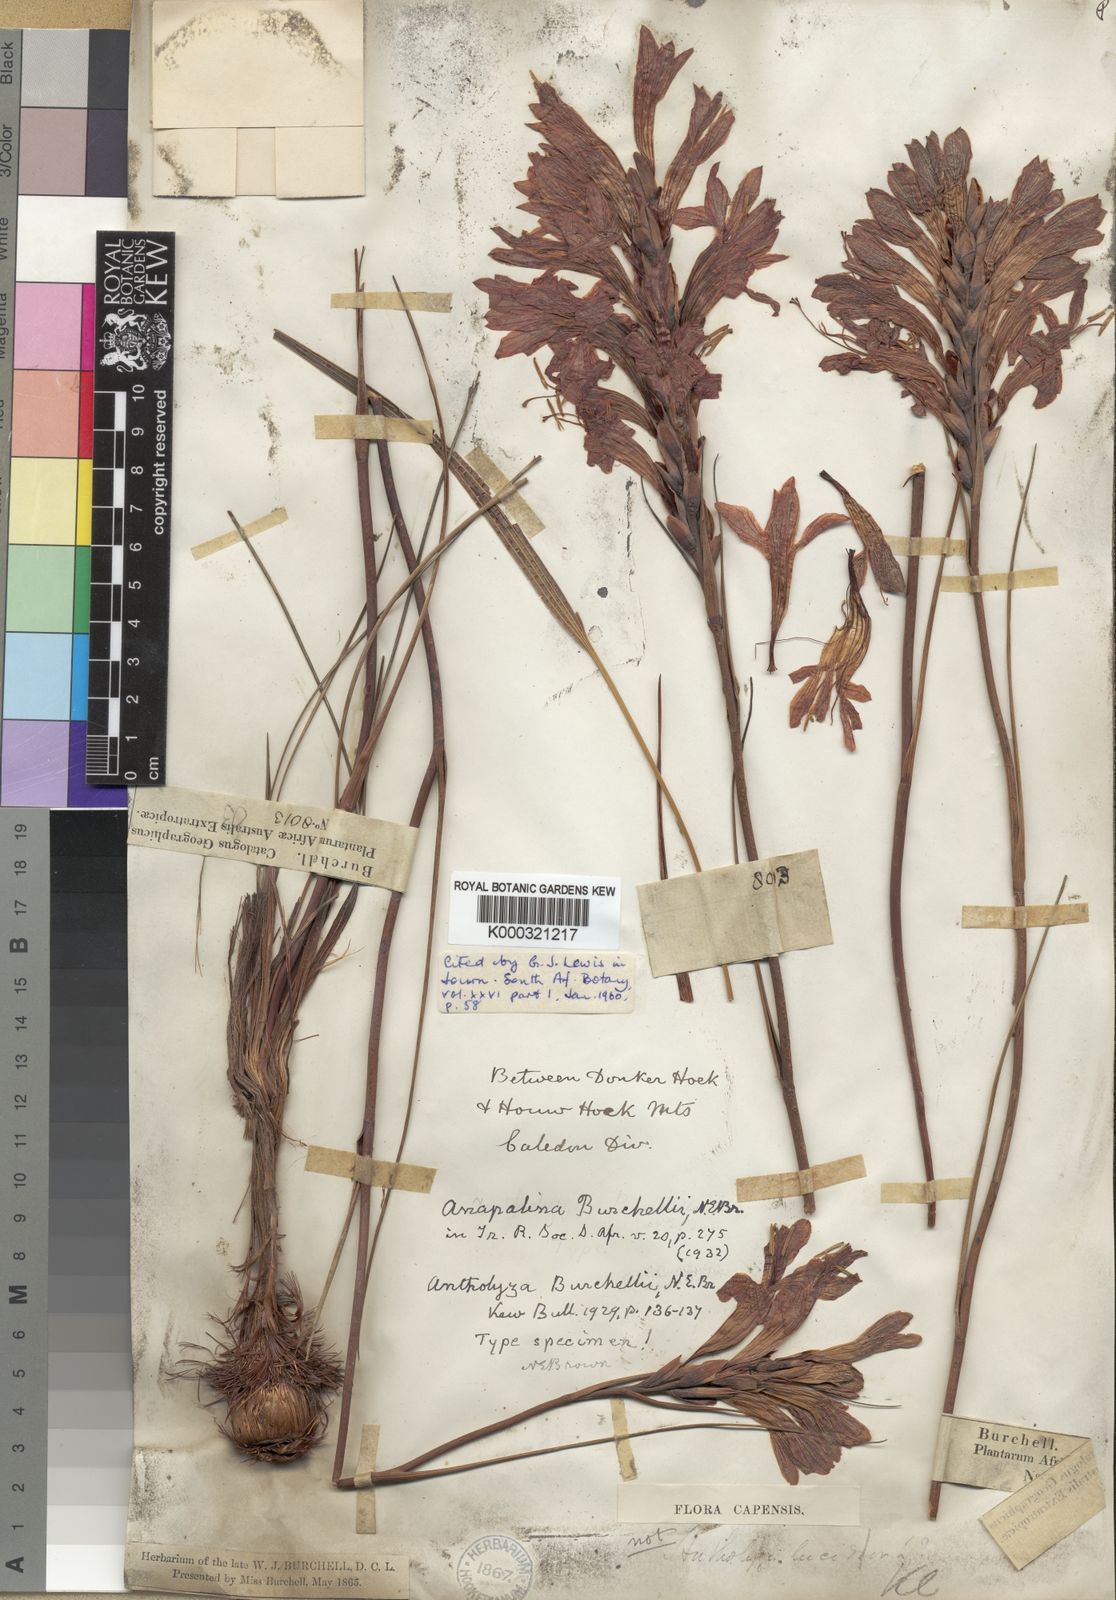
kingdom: Plantae
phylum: Tracheophyta
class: Liliopsida
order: Asparagales
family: Iridaceae
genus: Tritoniopsis
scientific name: Tritoniopsis triticea
